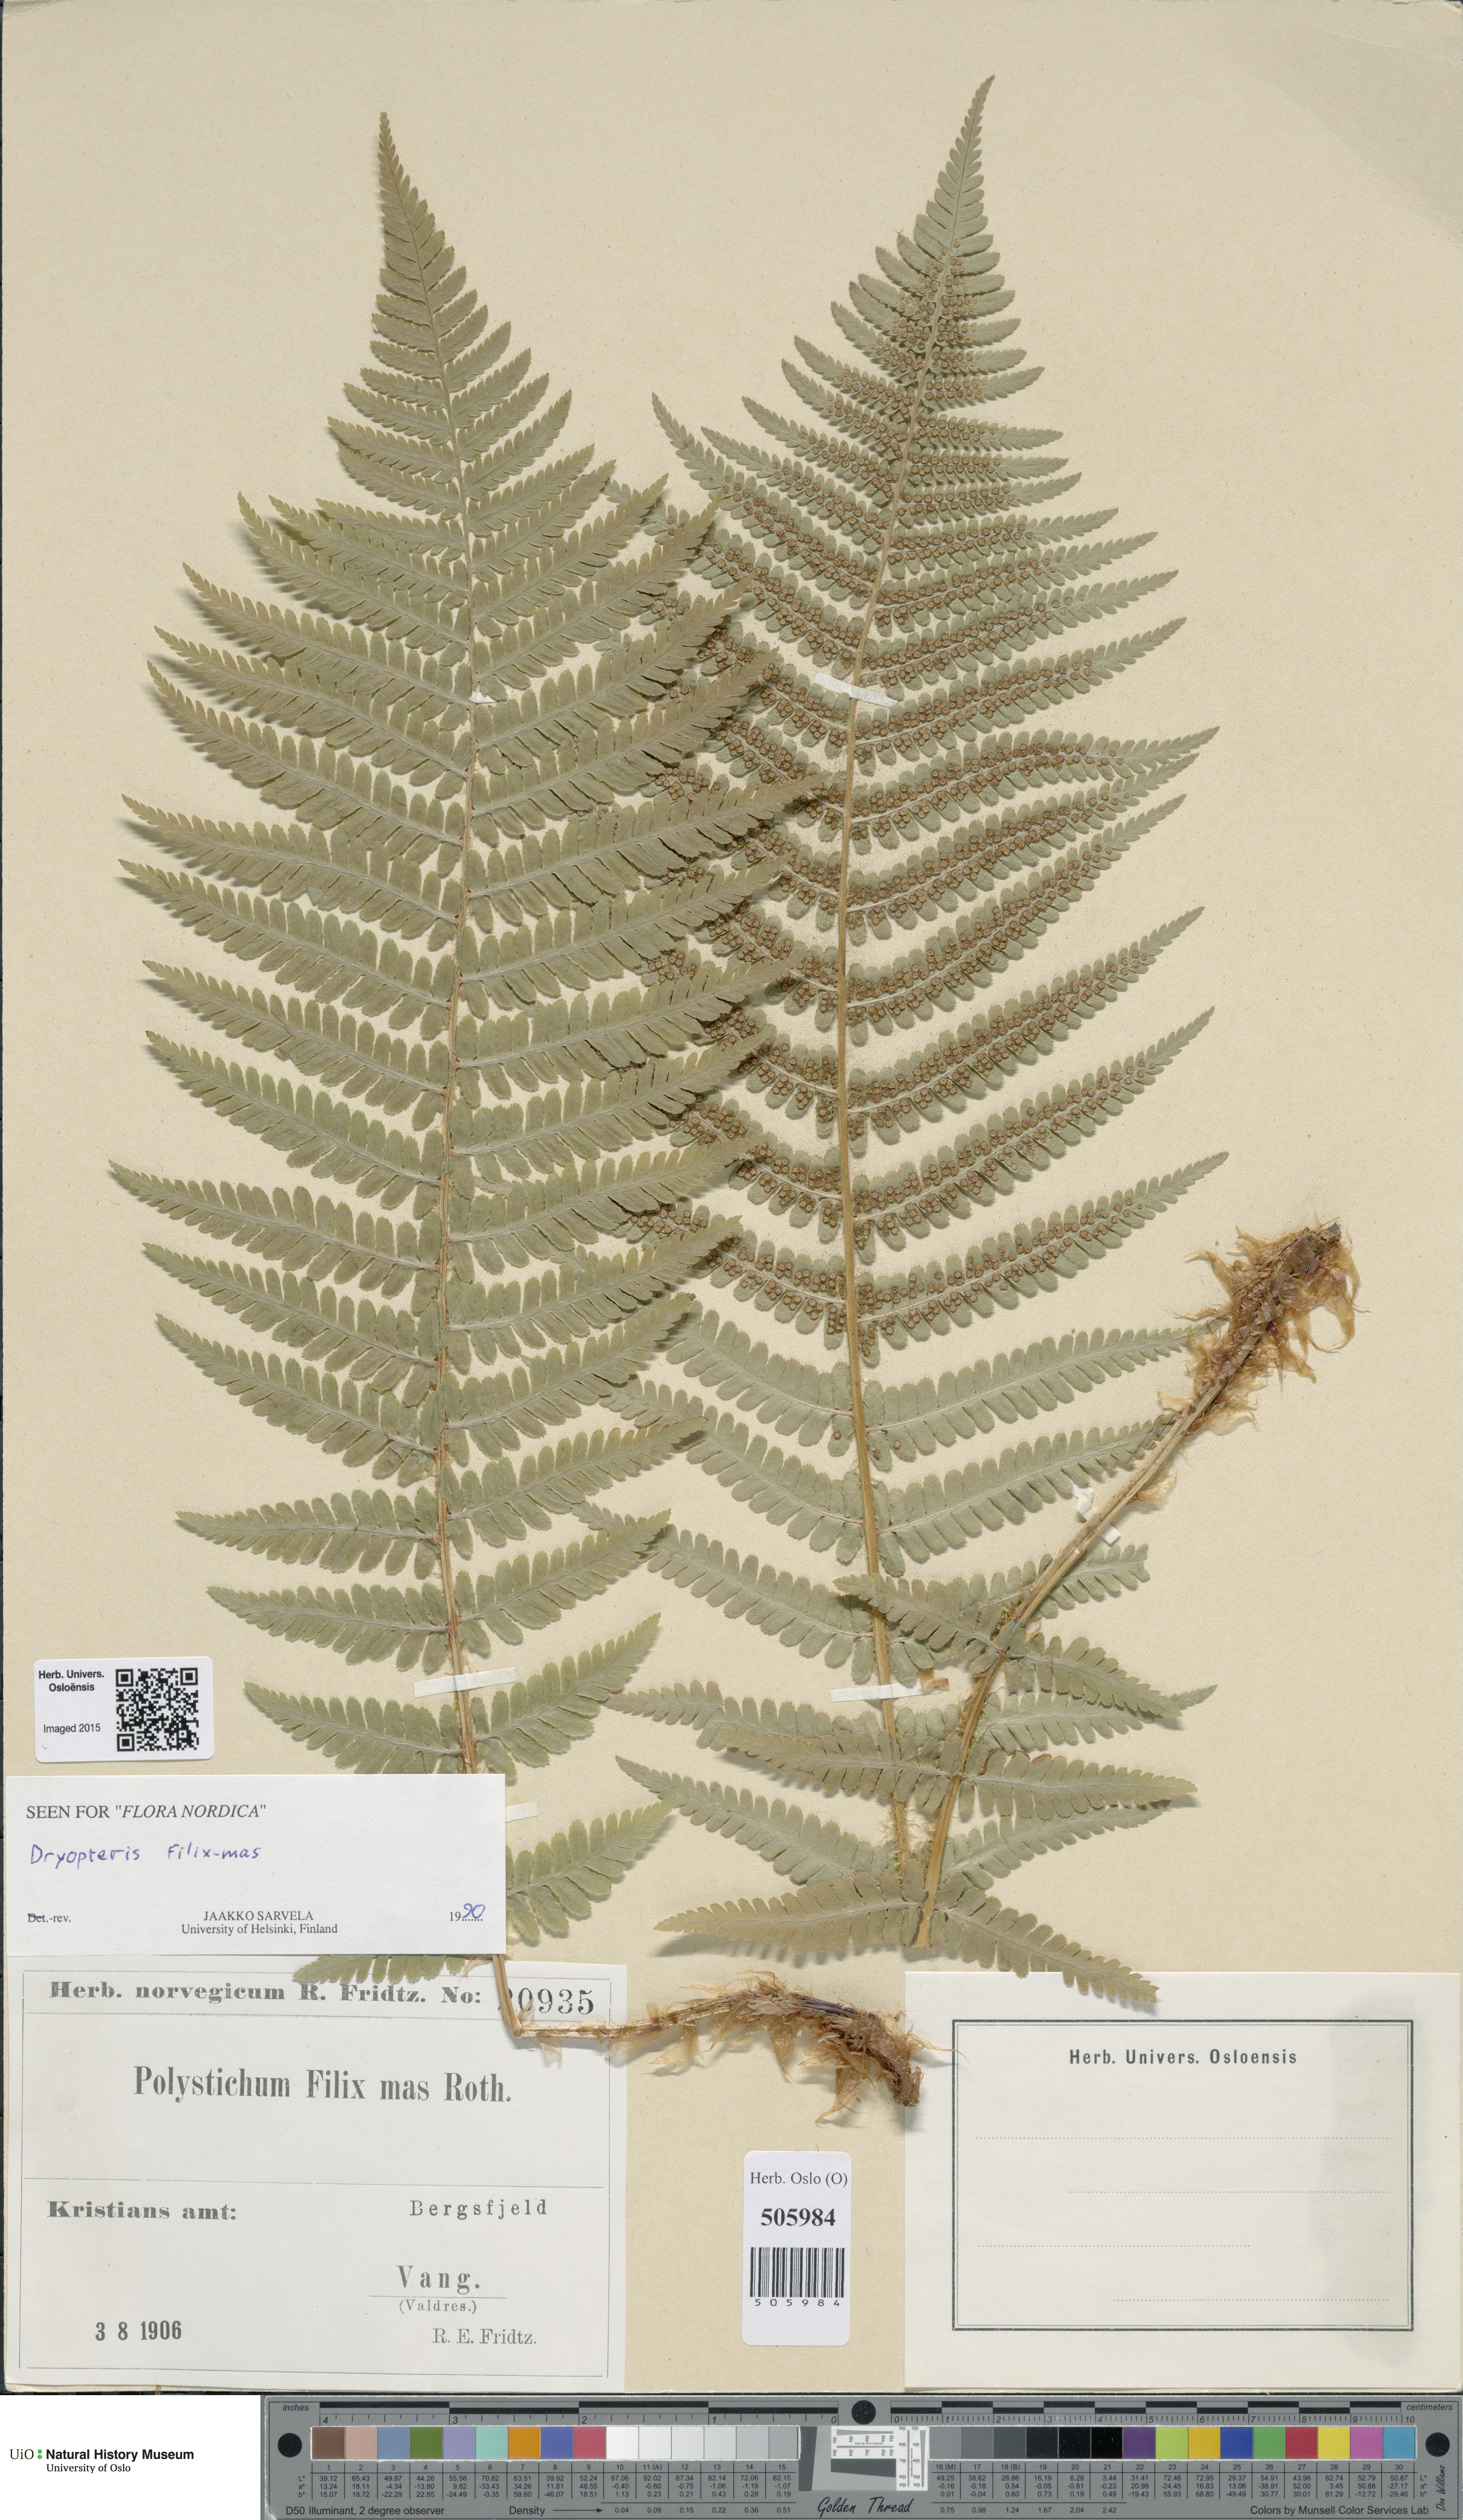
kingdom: Plantae
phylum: Tracheophyta
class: Polypodiopsida
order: Polypodiales
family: Dryopteridaceae
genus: Dryopteris
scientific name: Dryopteris filix-mas
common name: Male fern
